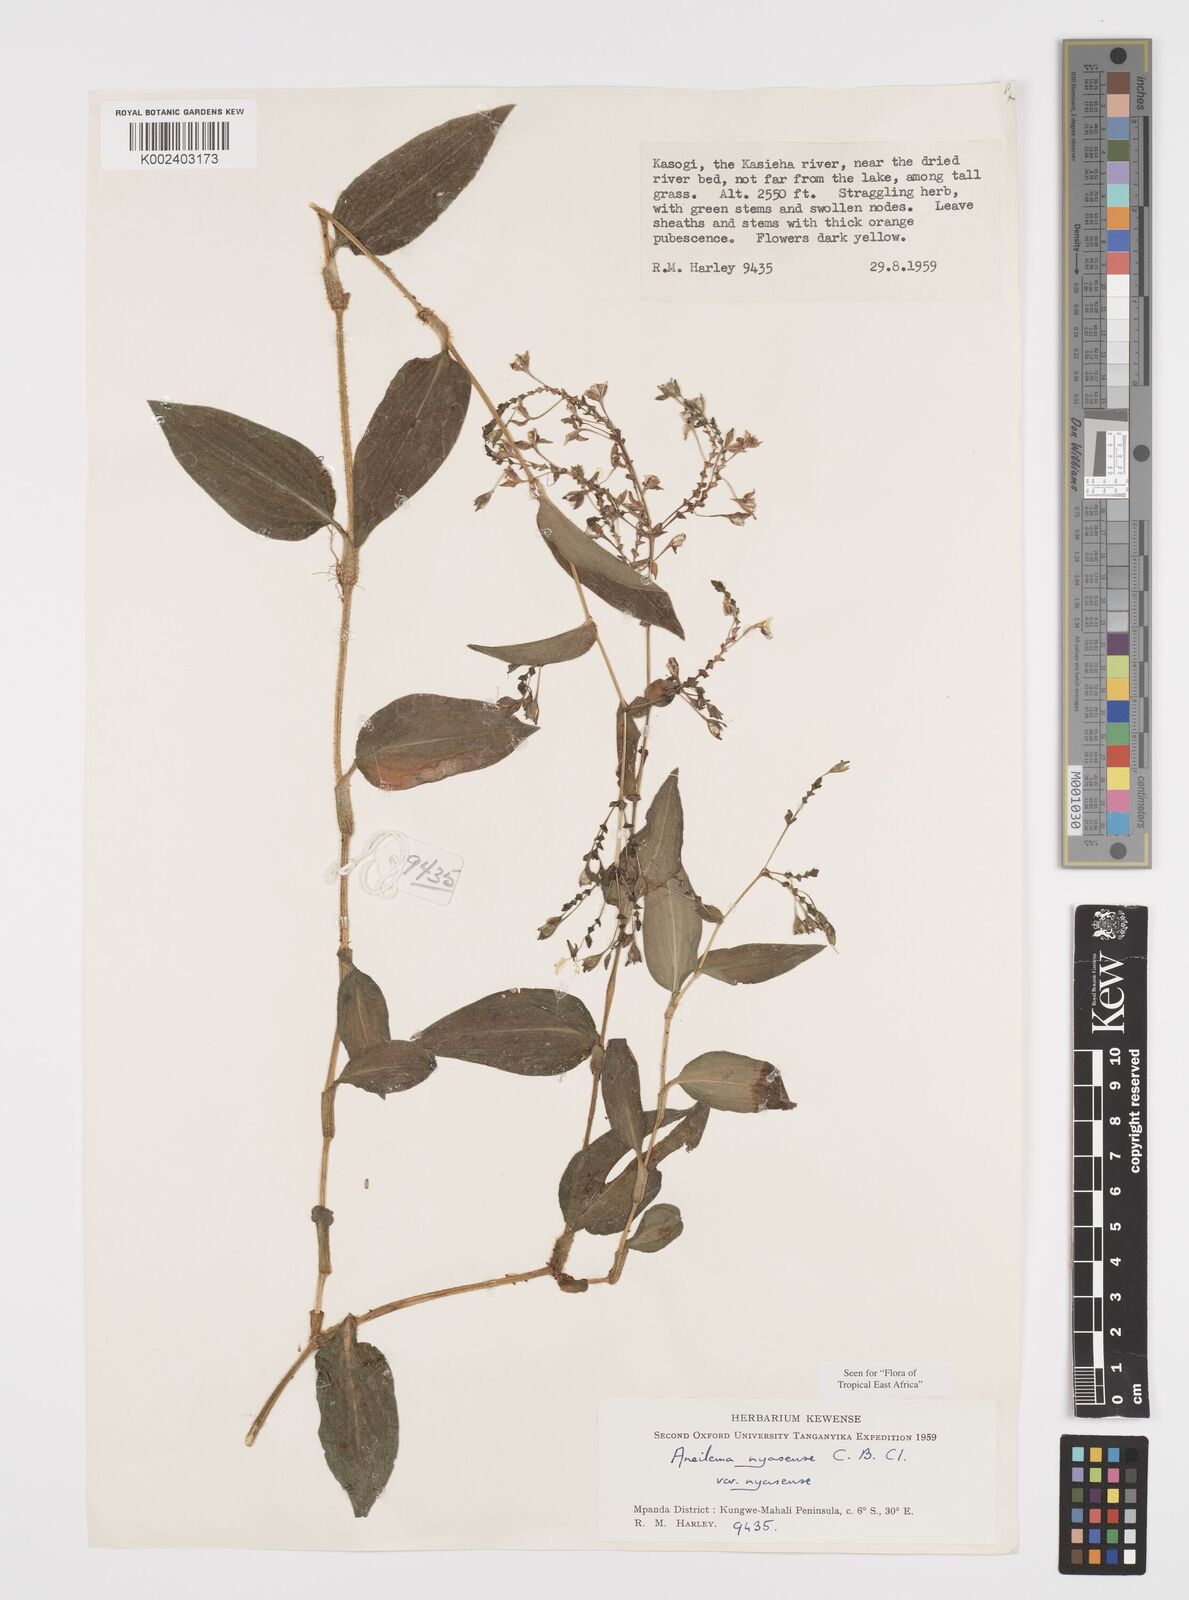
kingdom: Plantae
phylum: Tracheophyta
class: Liliopsida
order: Commelinales
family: Commelinaceae
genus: Aneilema
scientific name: Aneilema nyasense
